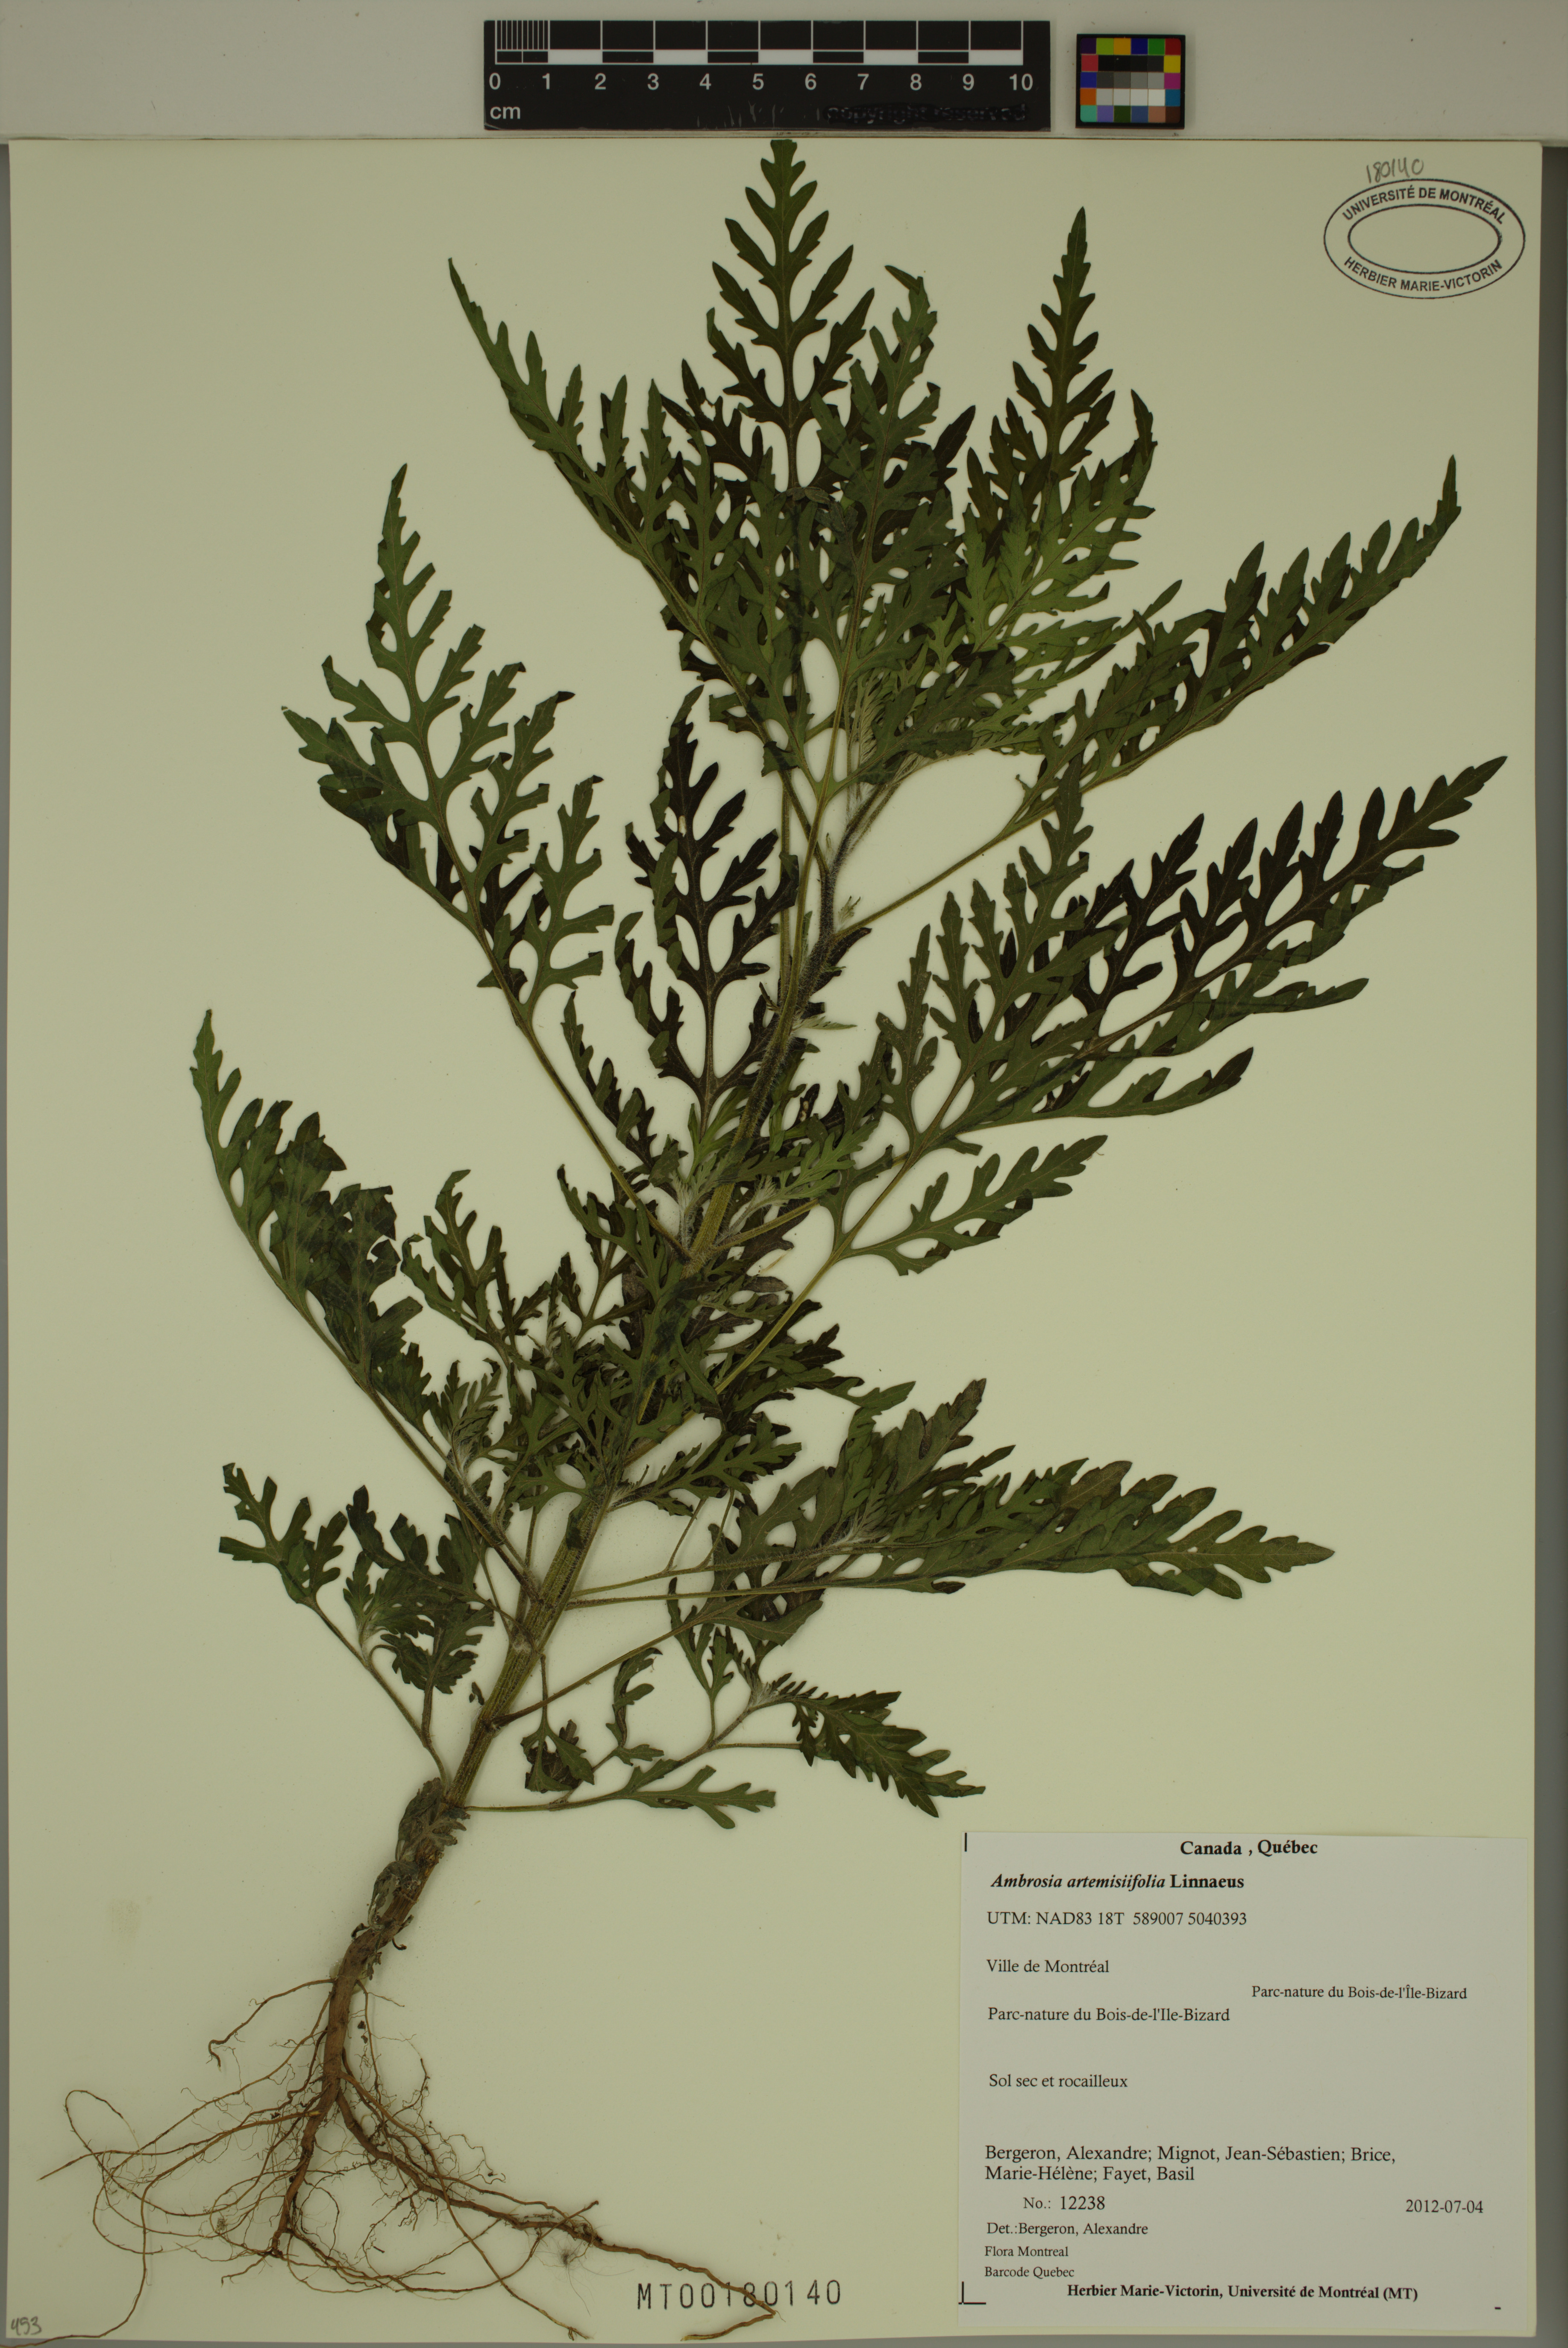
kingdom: Plantae
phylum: Tracheophyta
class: Magnoliopsida
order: Asterales
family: Asteraceae
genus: Ambrosia
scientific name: Ambrosia artemisiifolia
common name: Annual ragweed
